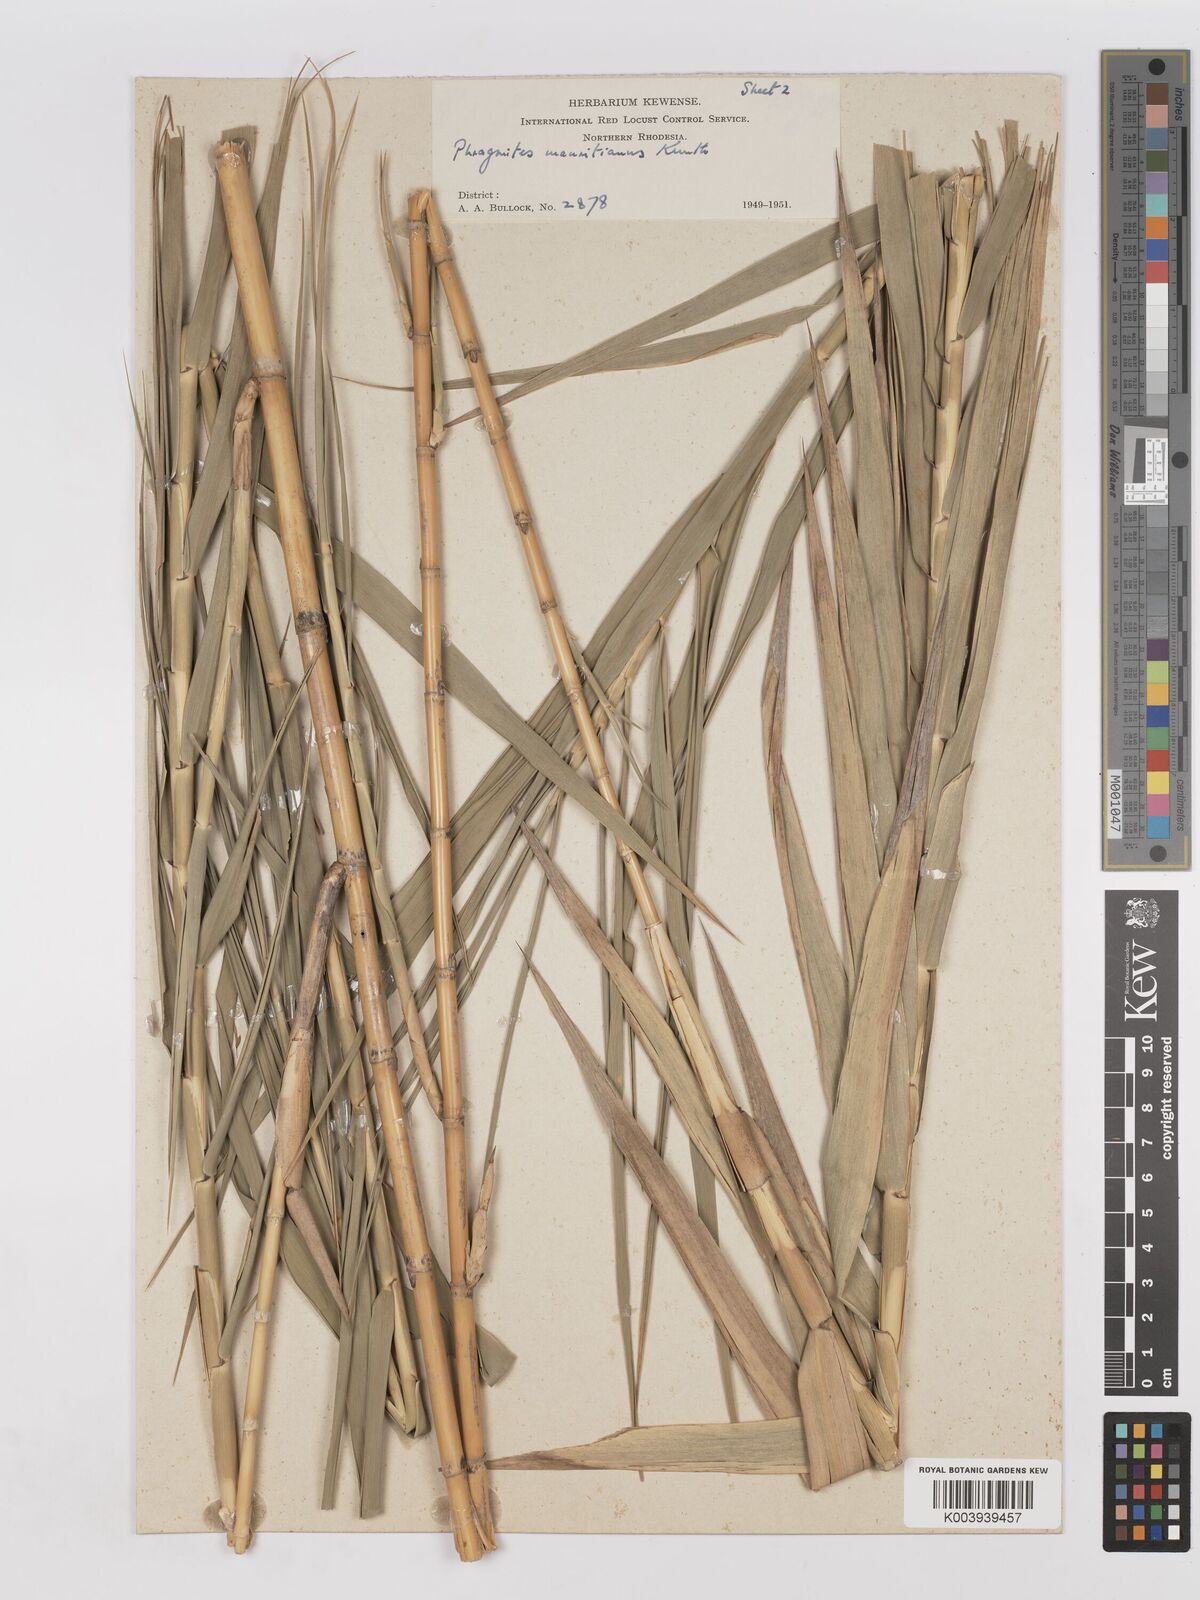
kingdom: Plantae
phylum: Tracheophyta
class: Liliopsida
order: Poales
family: Poaceae
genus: Phragmites
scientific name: Phragmites mauritianus
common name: Reed grass
